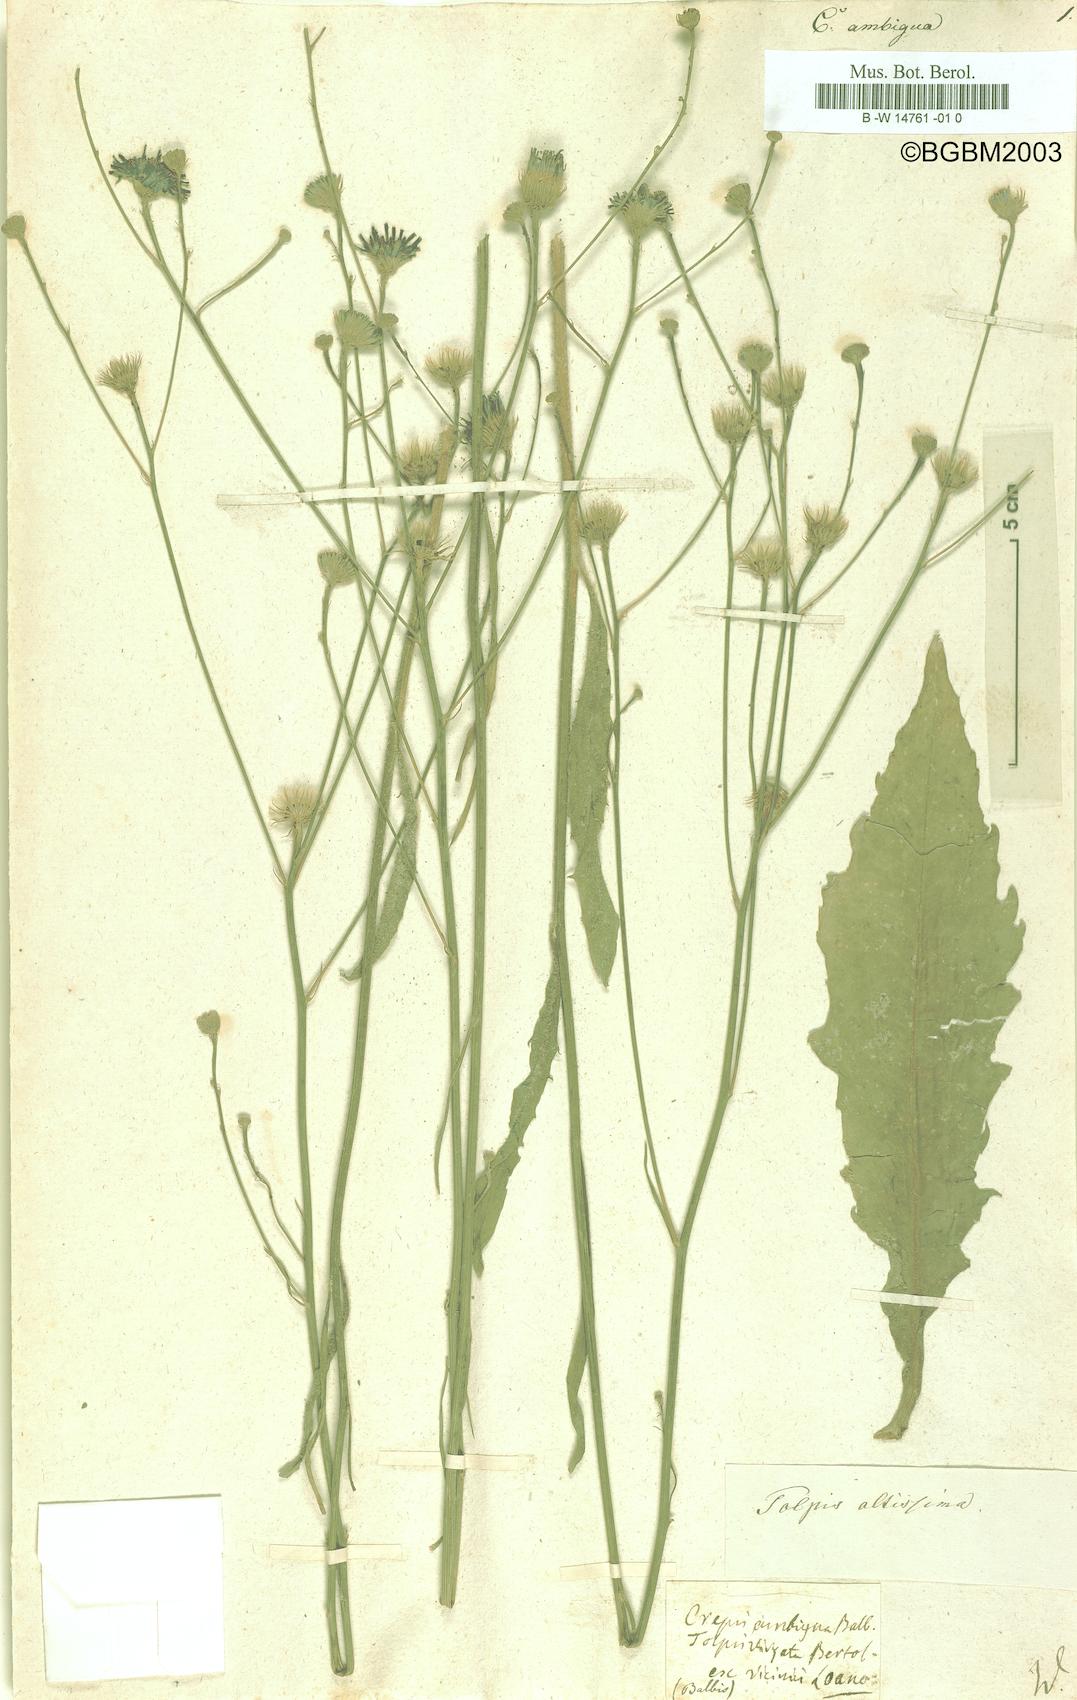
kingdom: Plantae
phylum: Tracheophyta
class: Magnoliopsida
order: Asterales
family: Asteraceae
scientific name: Asteraceae
